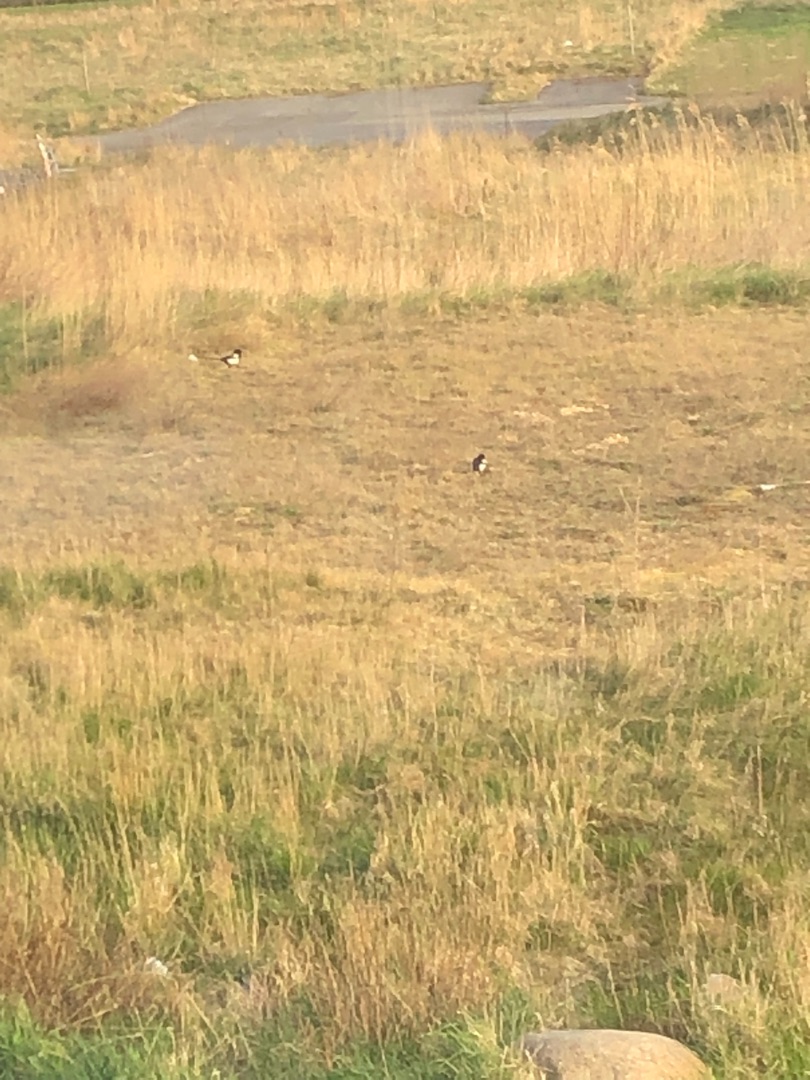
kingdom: Animalia
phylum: Chordata
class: Aves
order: Passeriformes
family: Corvidae
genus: Pica
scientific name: Pica pica
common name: Husskade
